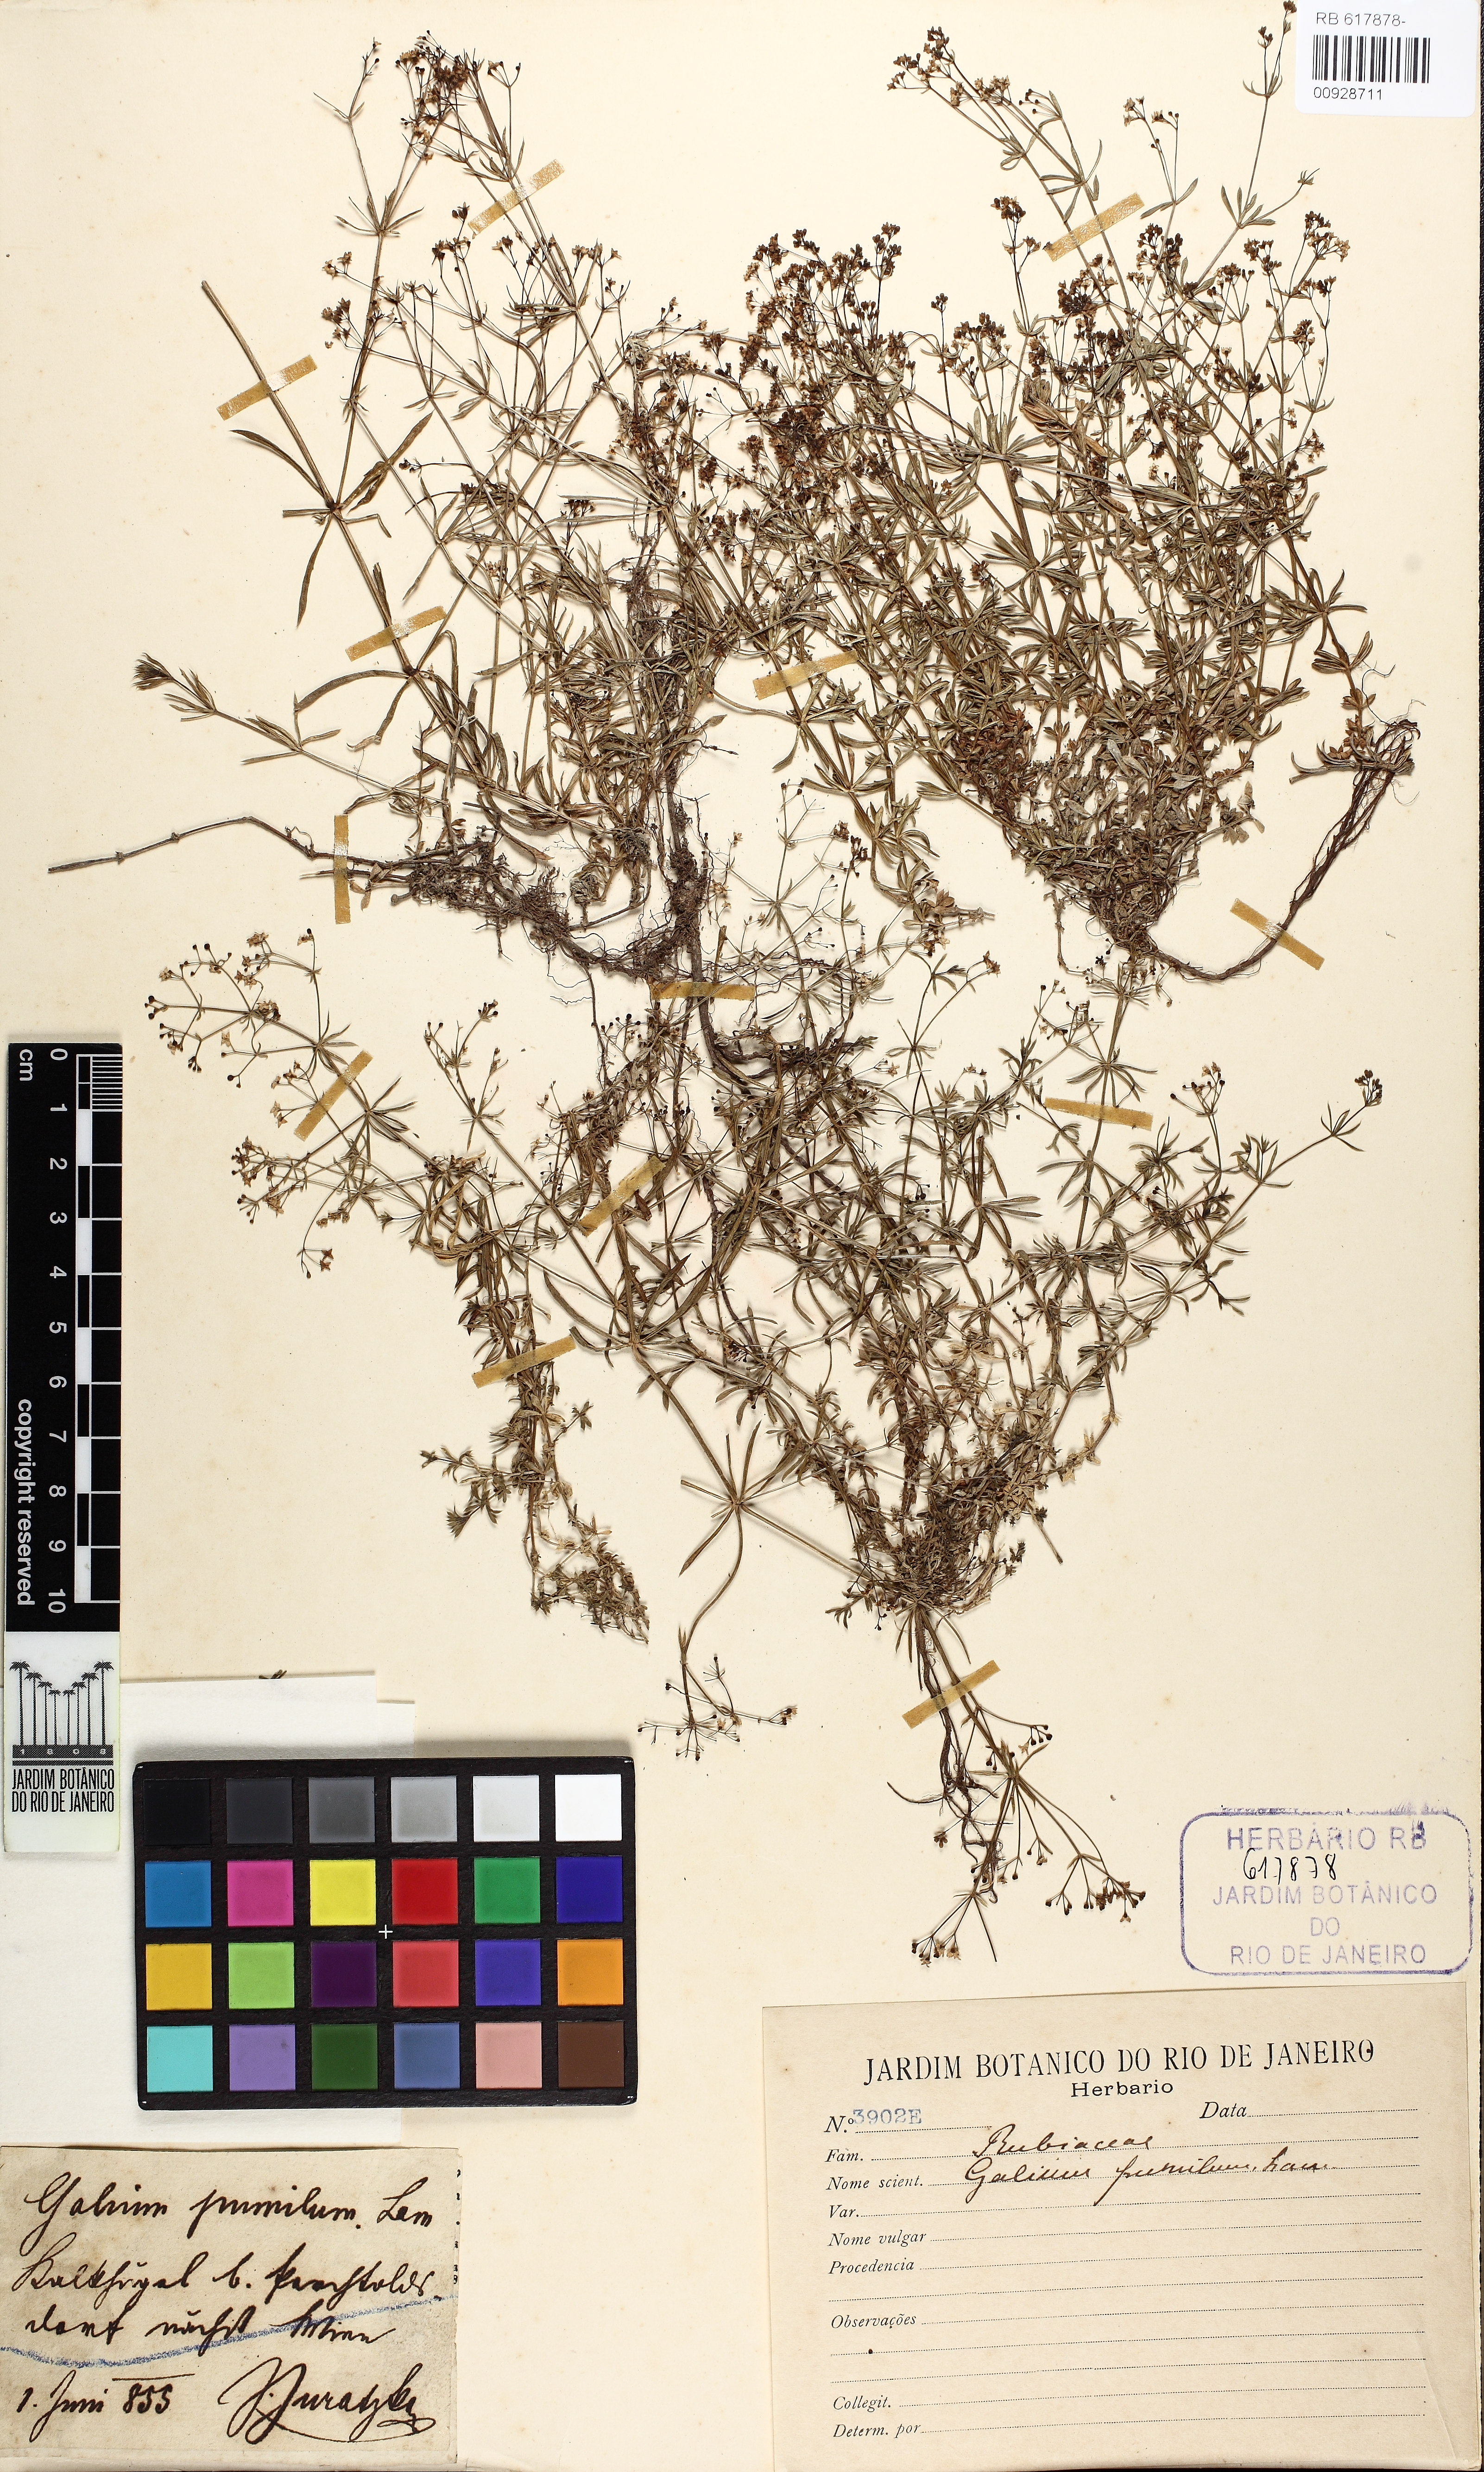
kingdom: Plantae
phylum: Tracheophyta
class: Magnoliopsida
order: Gentianales
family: Rubiaceae
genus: Galium
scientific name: Galium pumilum
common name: Slender bedstraw
